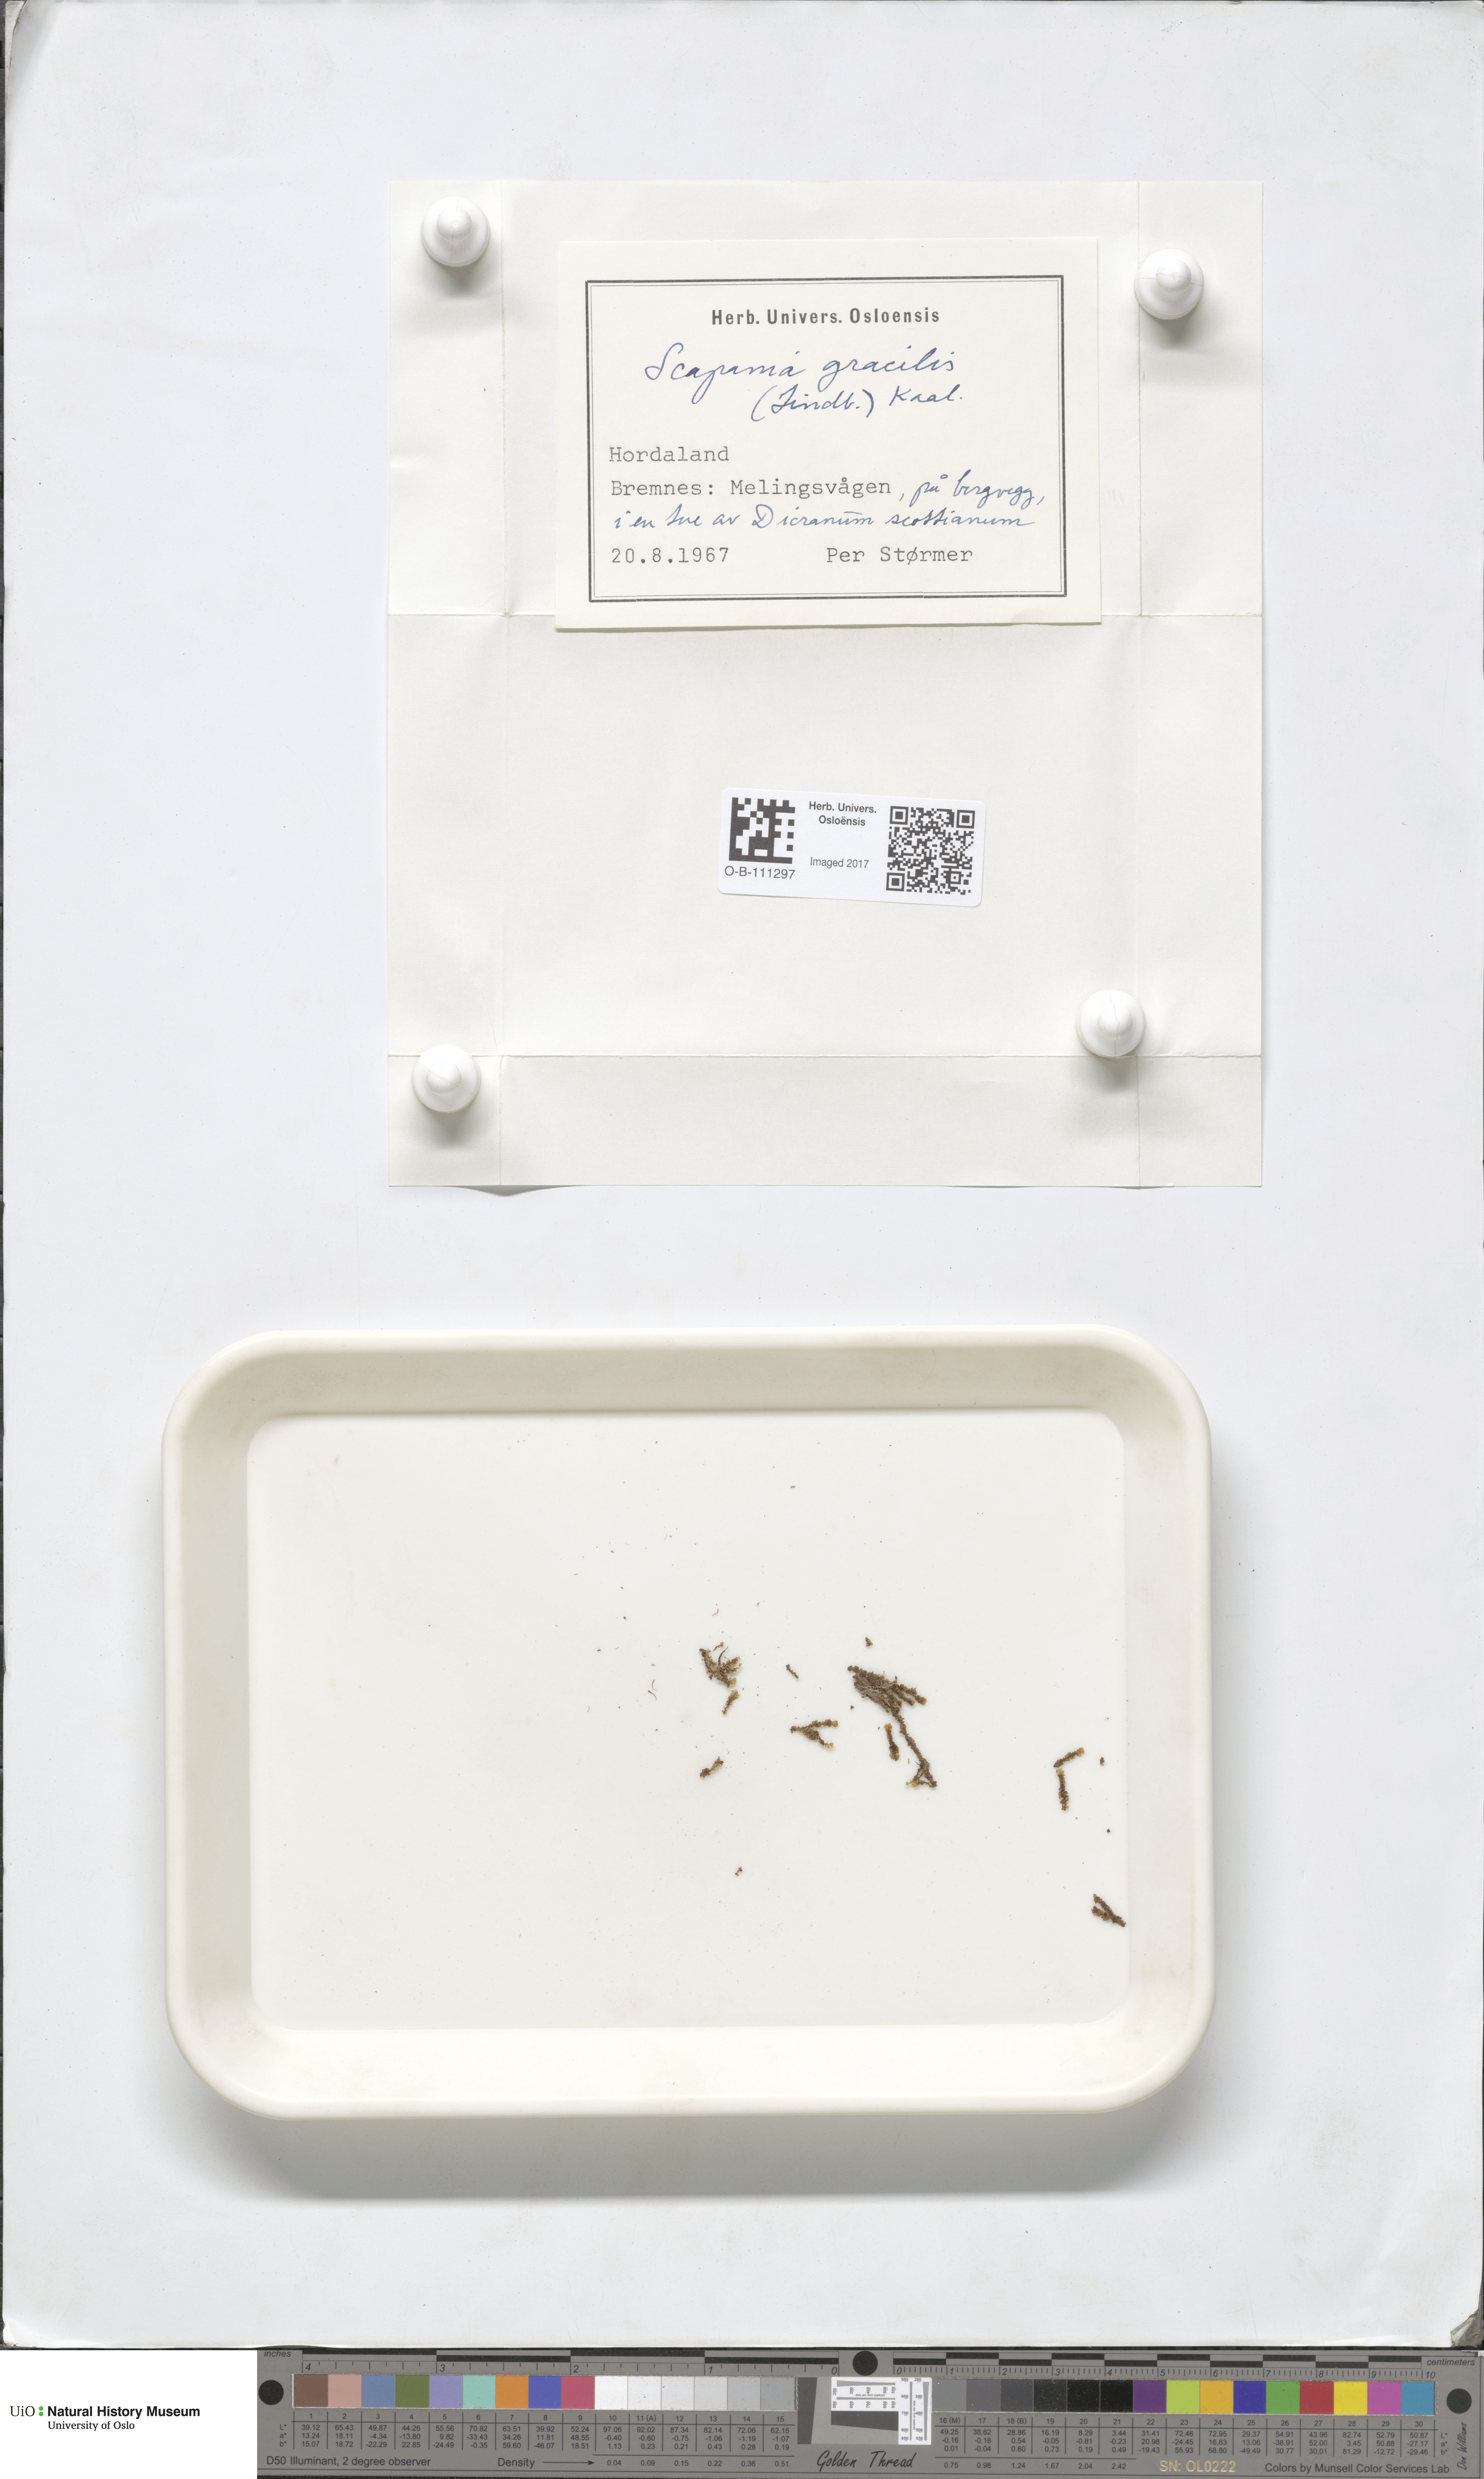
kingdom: Plantae
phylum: Marchantiophyta
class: Jungermanniopsida
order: Jungermanniales
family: Scapaniaceae
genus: Scapania
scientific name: Scapania gracilis
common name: Western earwort
